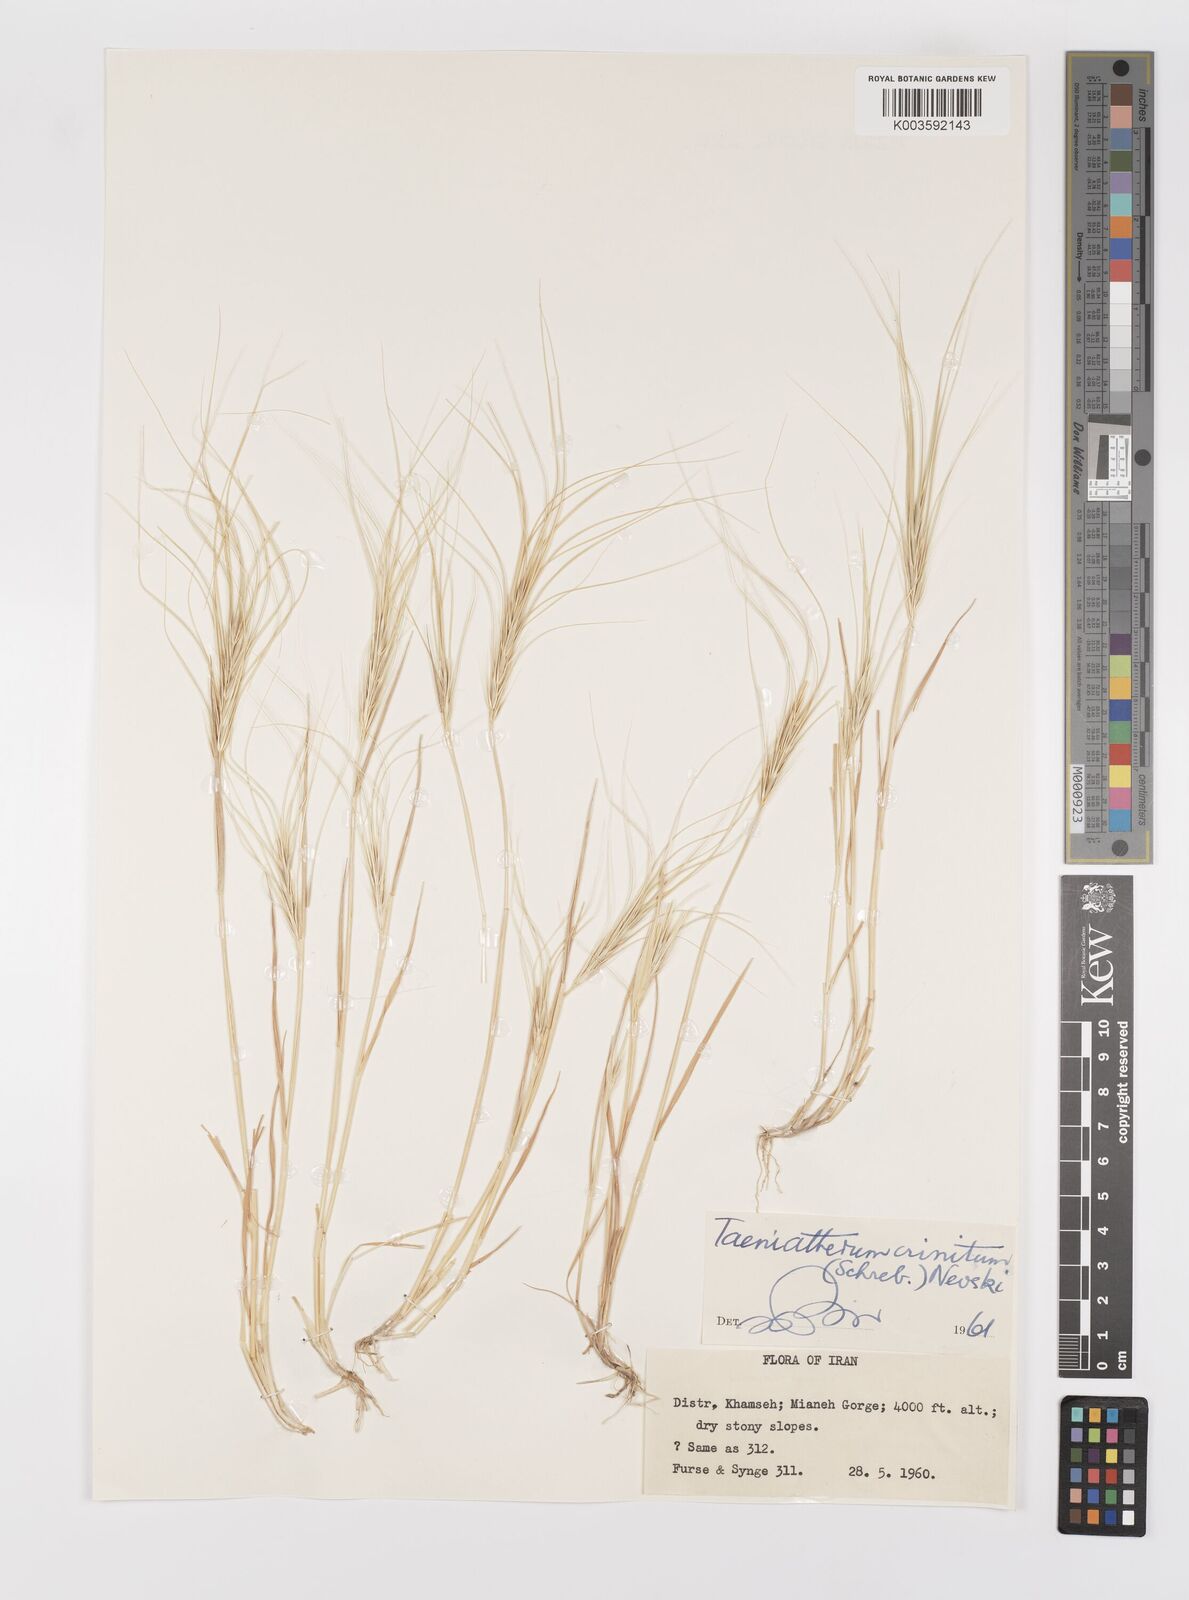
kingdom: Plantae
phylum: Tracheophyta
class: Liliopsida
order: Poales
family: Poaceae
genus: Taeniatherum
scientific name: Taeniatherum caput-medusae
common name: Medusahead
